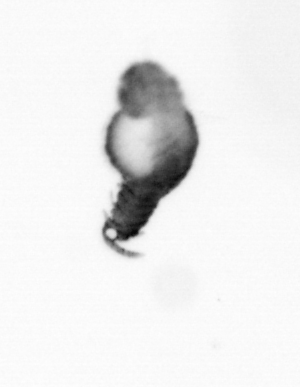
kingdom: Animalia
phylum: Annelida
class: Polychaeta
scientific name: Polychaeta
